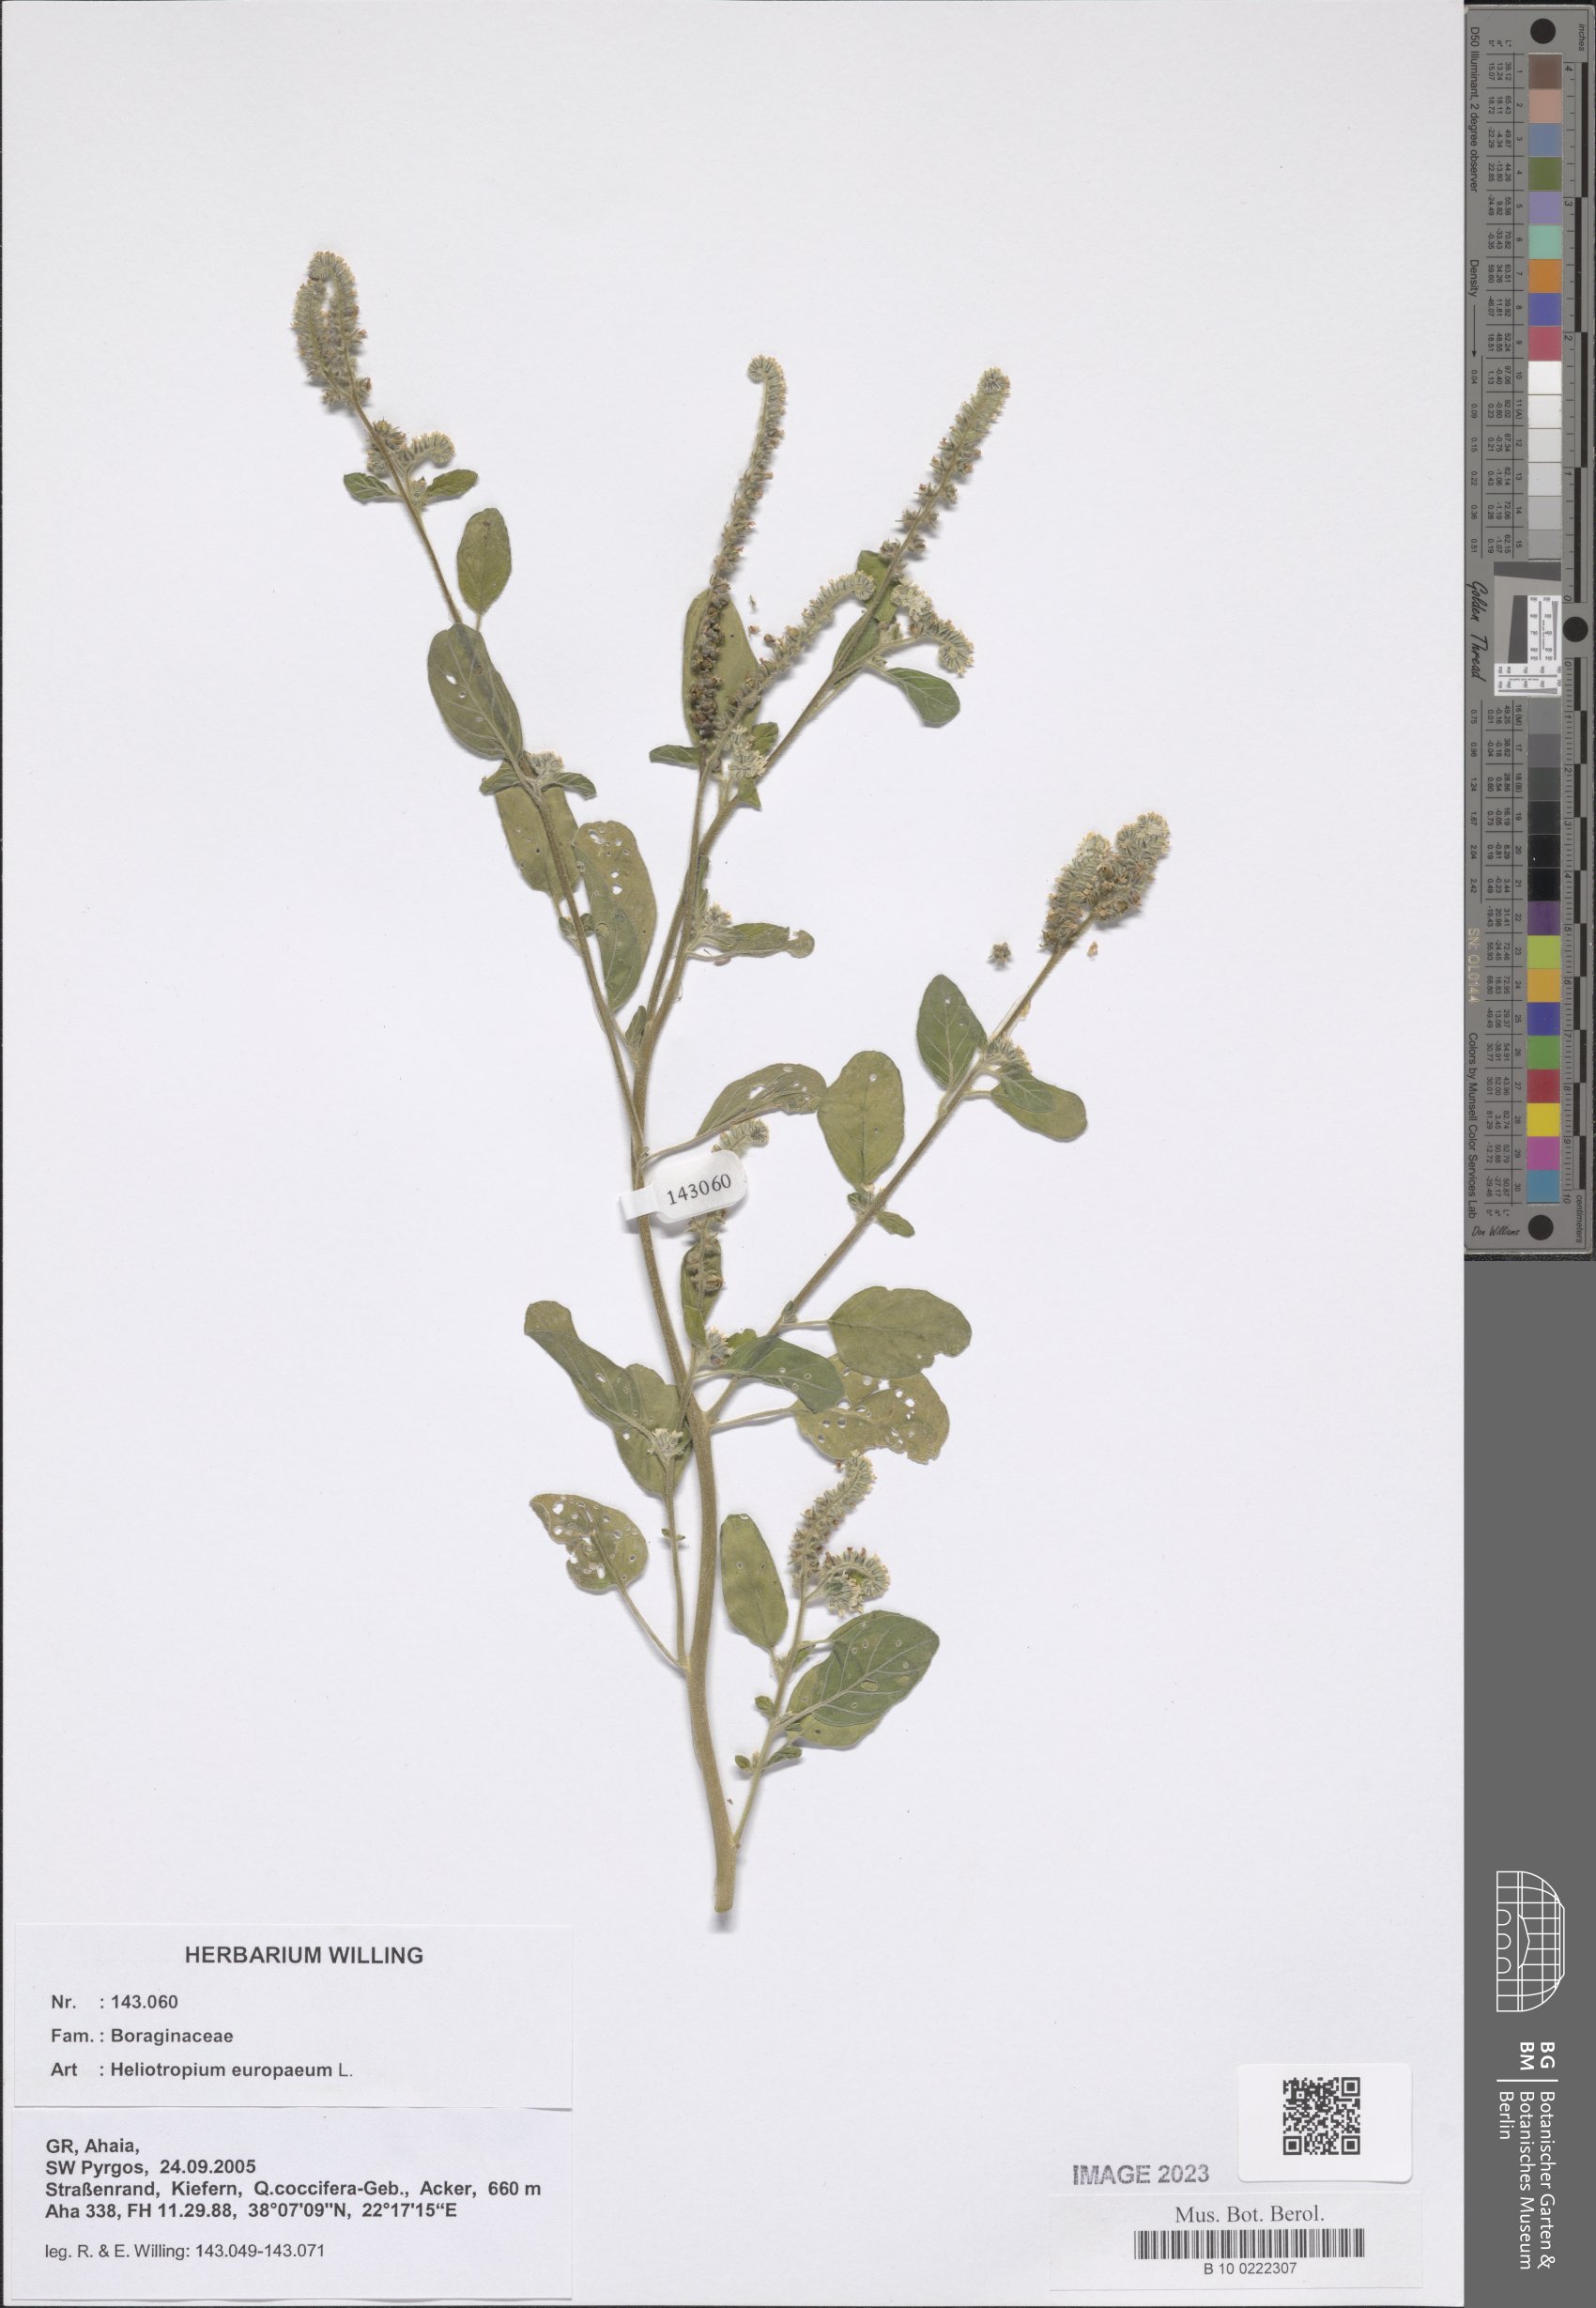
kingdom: Plantae
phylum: Tracheophyta
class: Magnoliopsida
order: Boraginales
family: Heliotropiaceae
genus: Heliotropium
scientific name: Heliotropium europaeum
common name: European heliotrope
